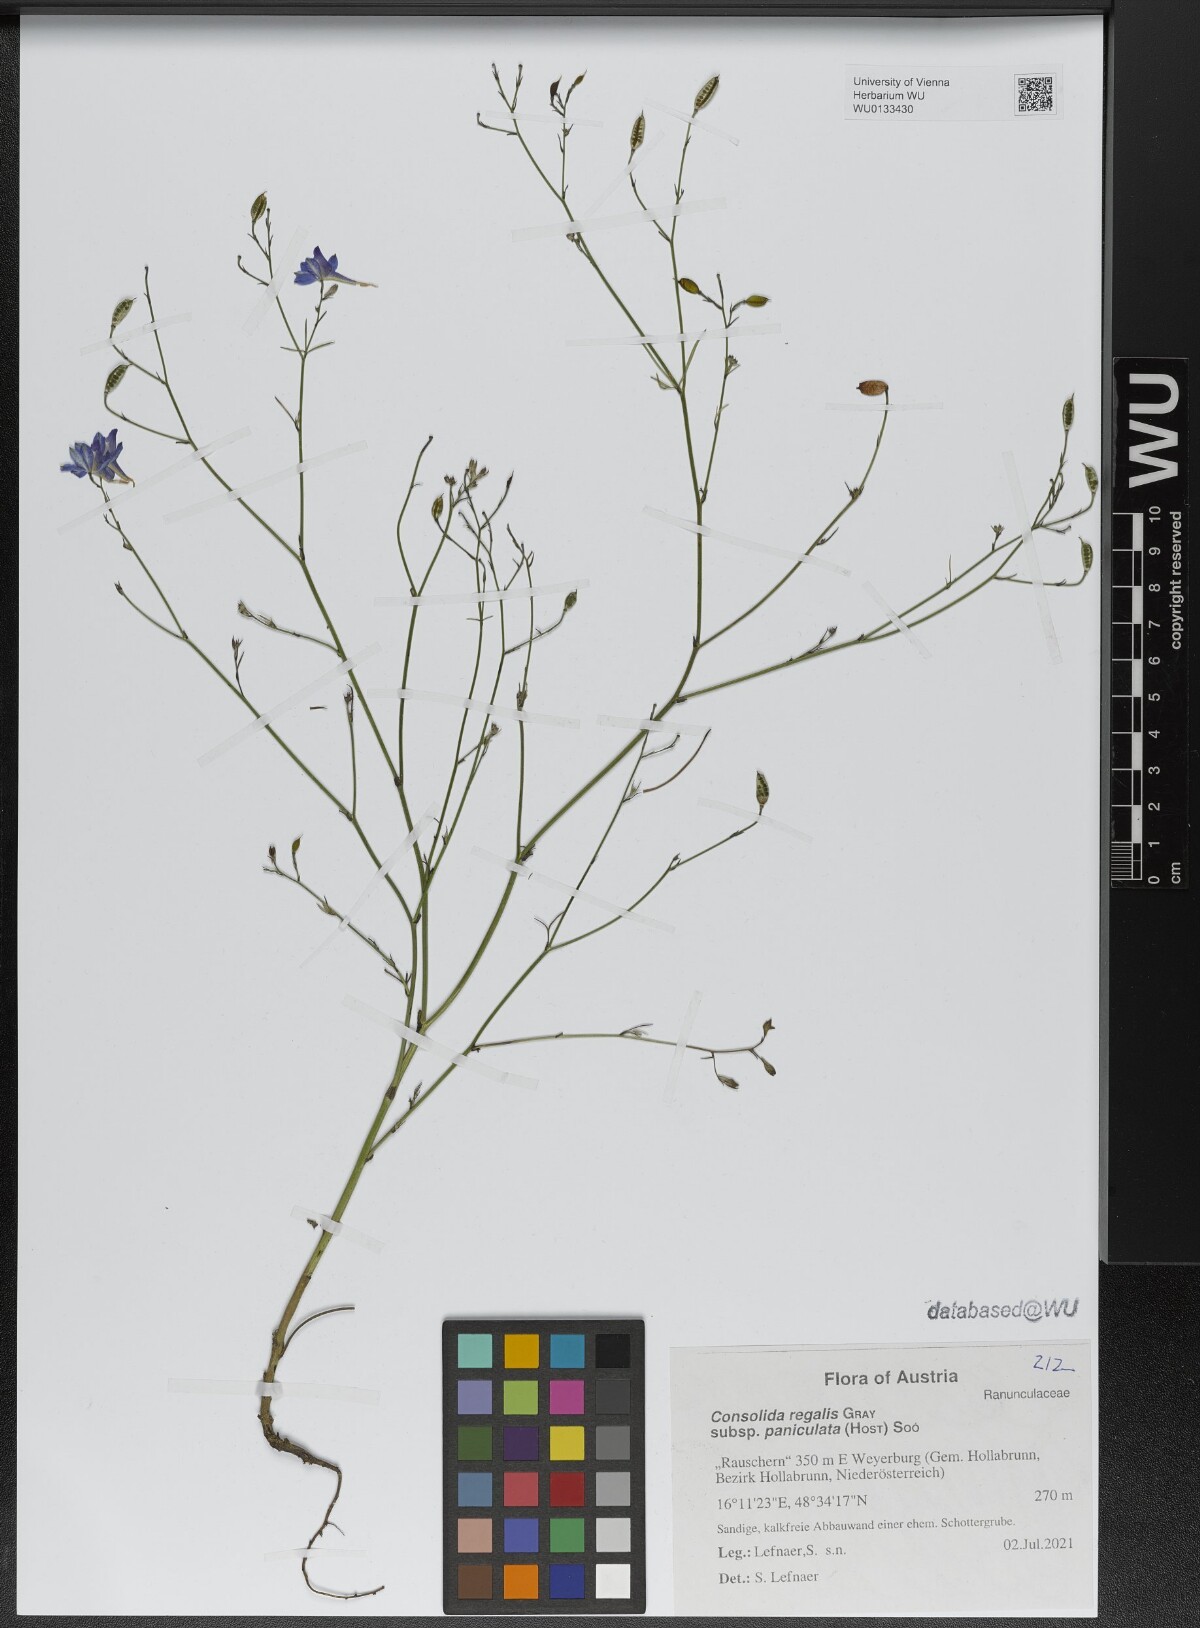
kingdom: Plantae
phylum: Tracheophyta
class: Magnoliopsida
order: Ranunculales
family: Ranunculaceae
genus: Delphinium
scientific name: Delphinium consolida
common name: Branching larkspur
